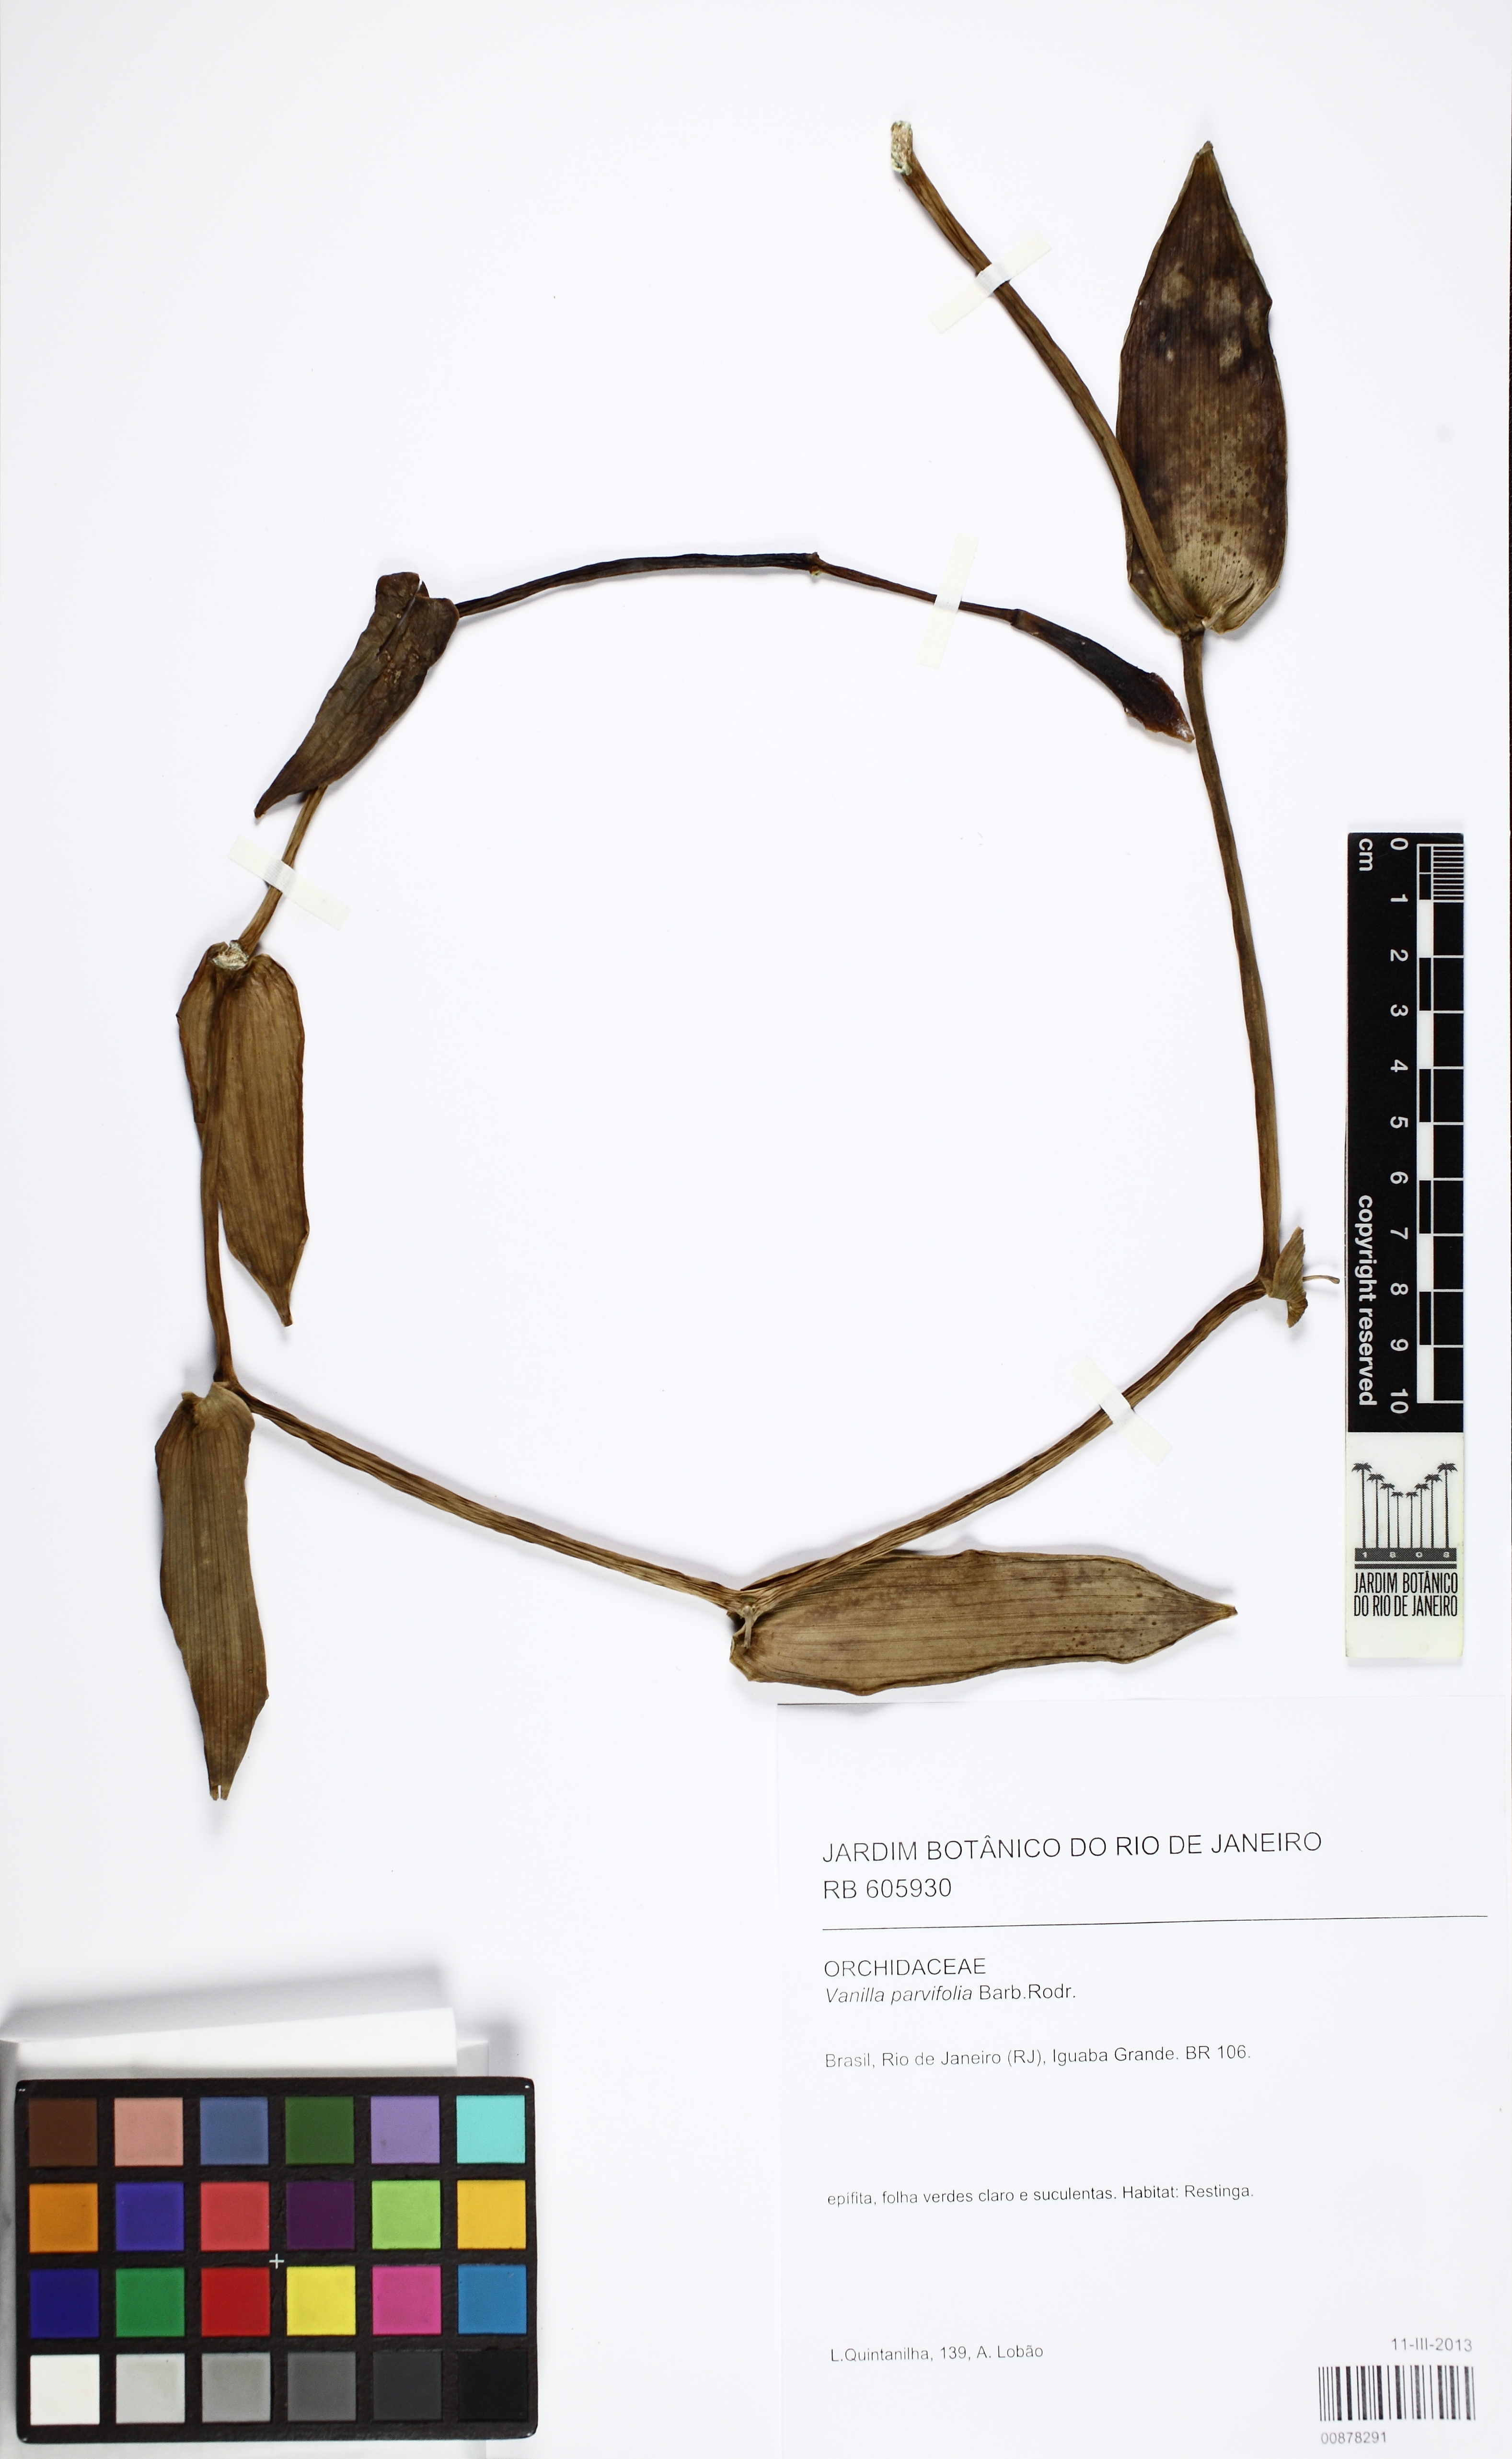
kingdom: Plantae
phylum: Tracheophyta
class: Liliopsida
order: Asparagales
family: Orchidaceae
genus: Vanilla
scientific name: Vanilla phaeantha
